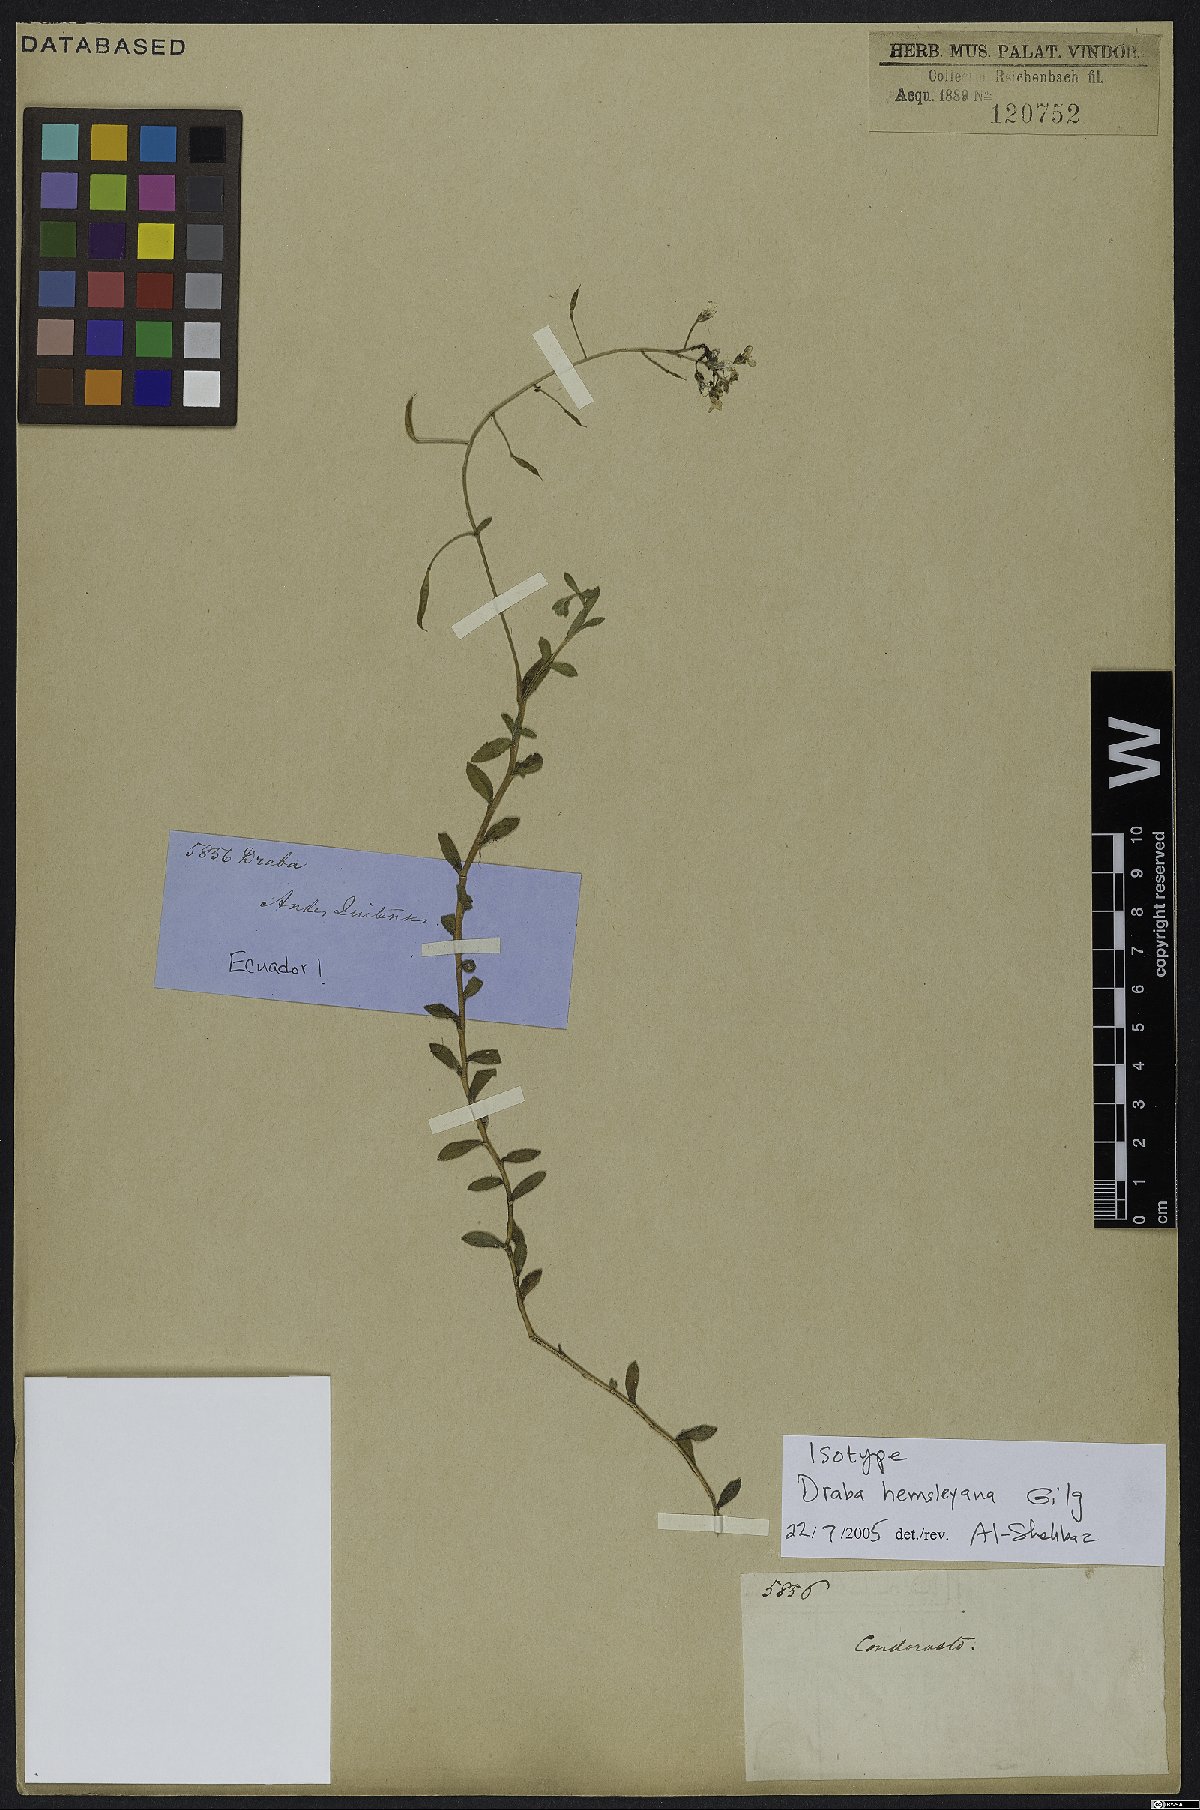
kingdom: Plantae
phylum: Tracheophyta
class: Magnoliopsida
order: Brassicales
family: Brassicaceae
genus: Draba
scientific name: Draba hemsleyana
